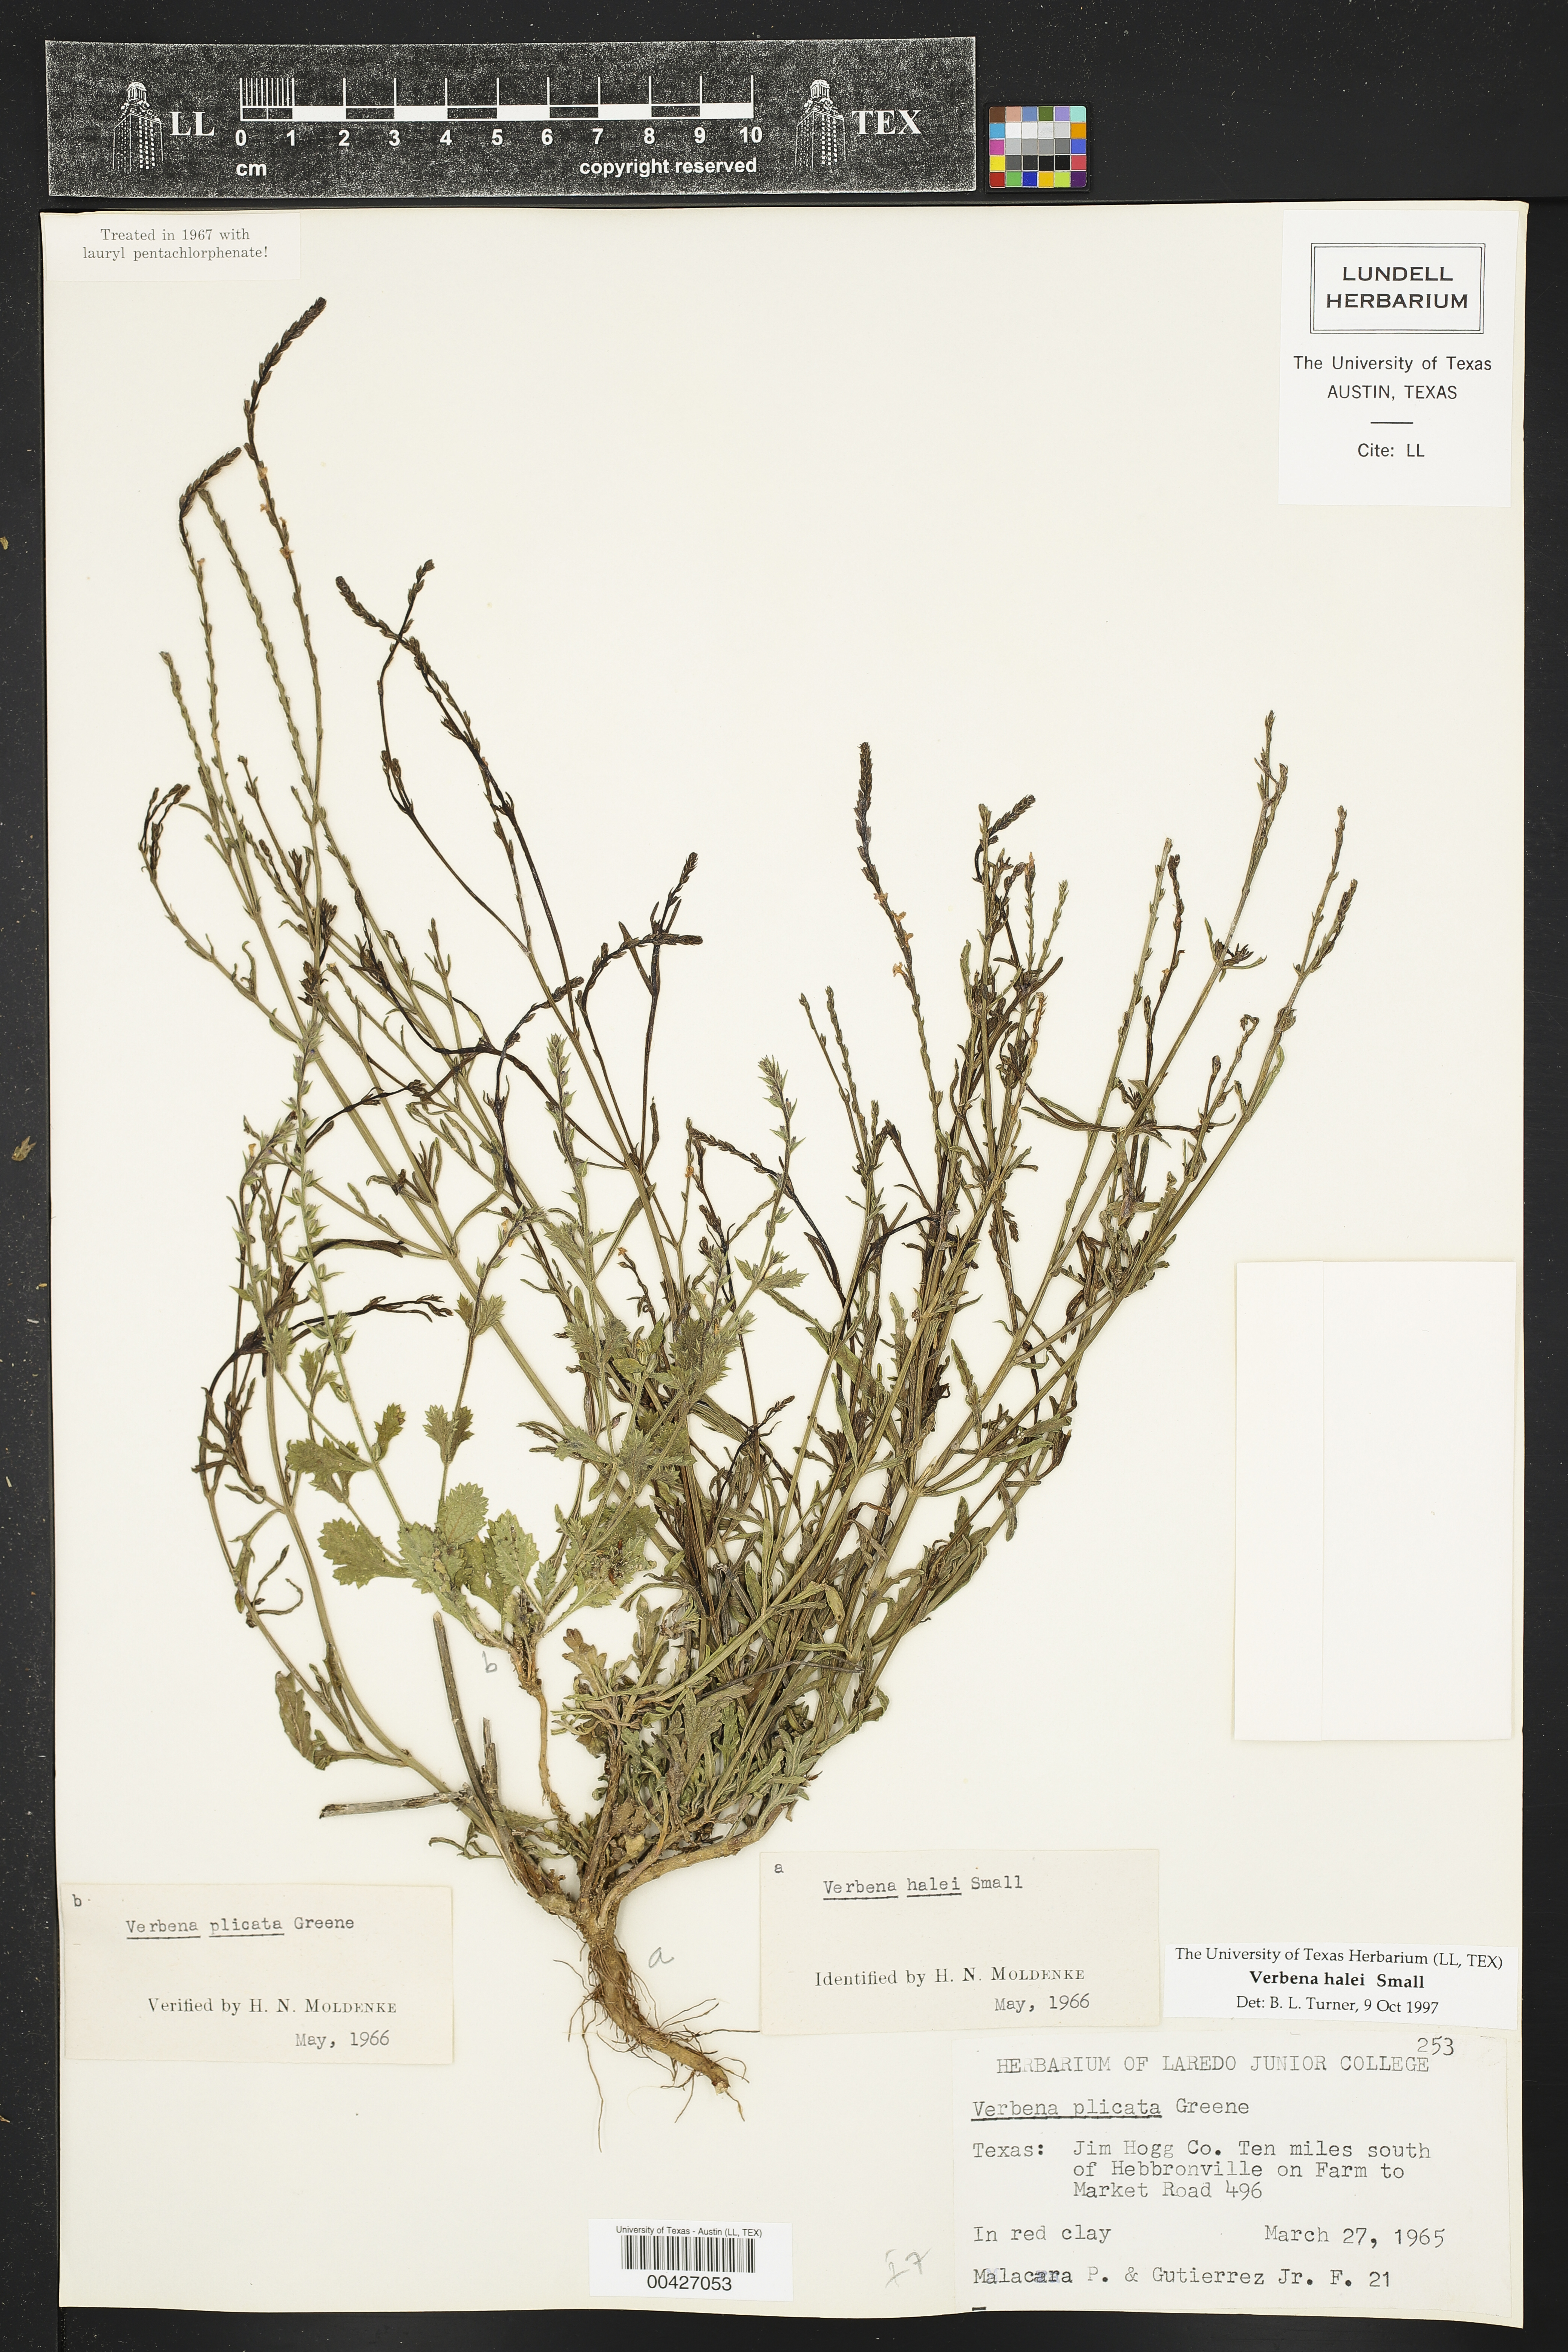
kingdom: Plantae
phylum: Tracheophyta
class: Magnoliopsida
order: Lamiales
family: Verbenaceae
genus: Verbena
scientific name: Verbena halei
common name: Texas vervain
